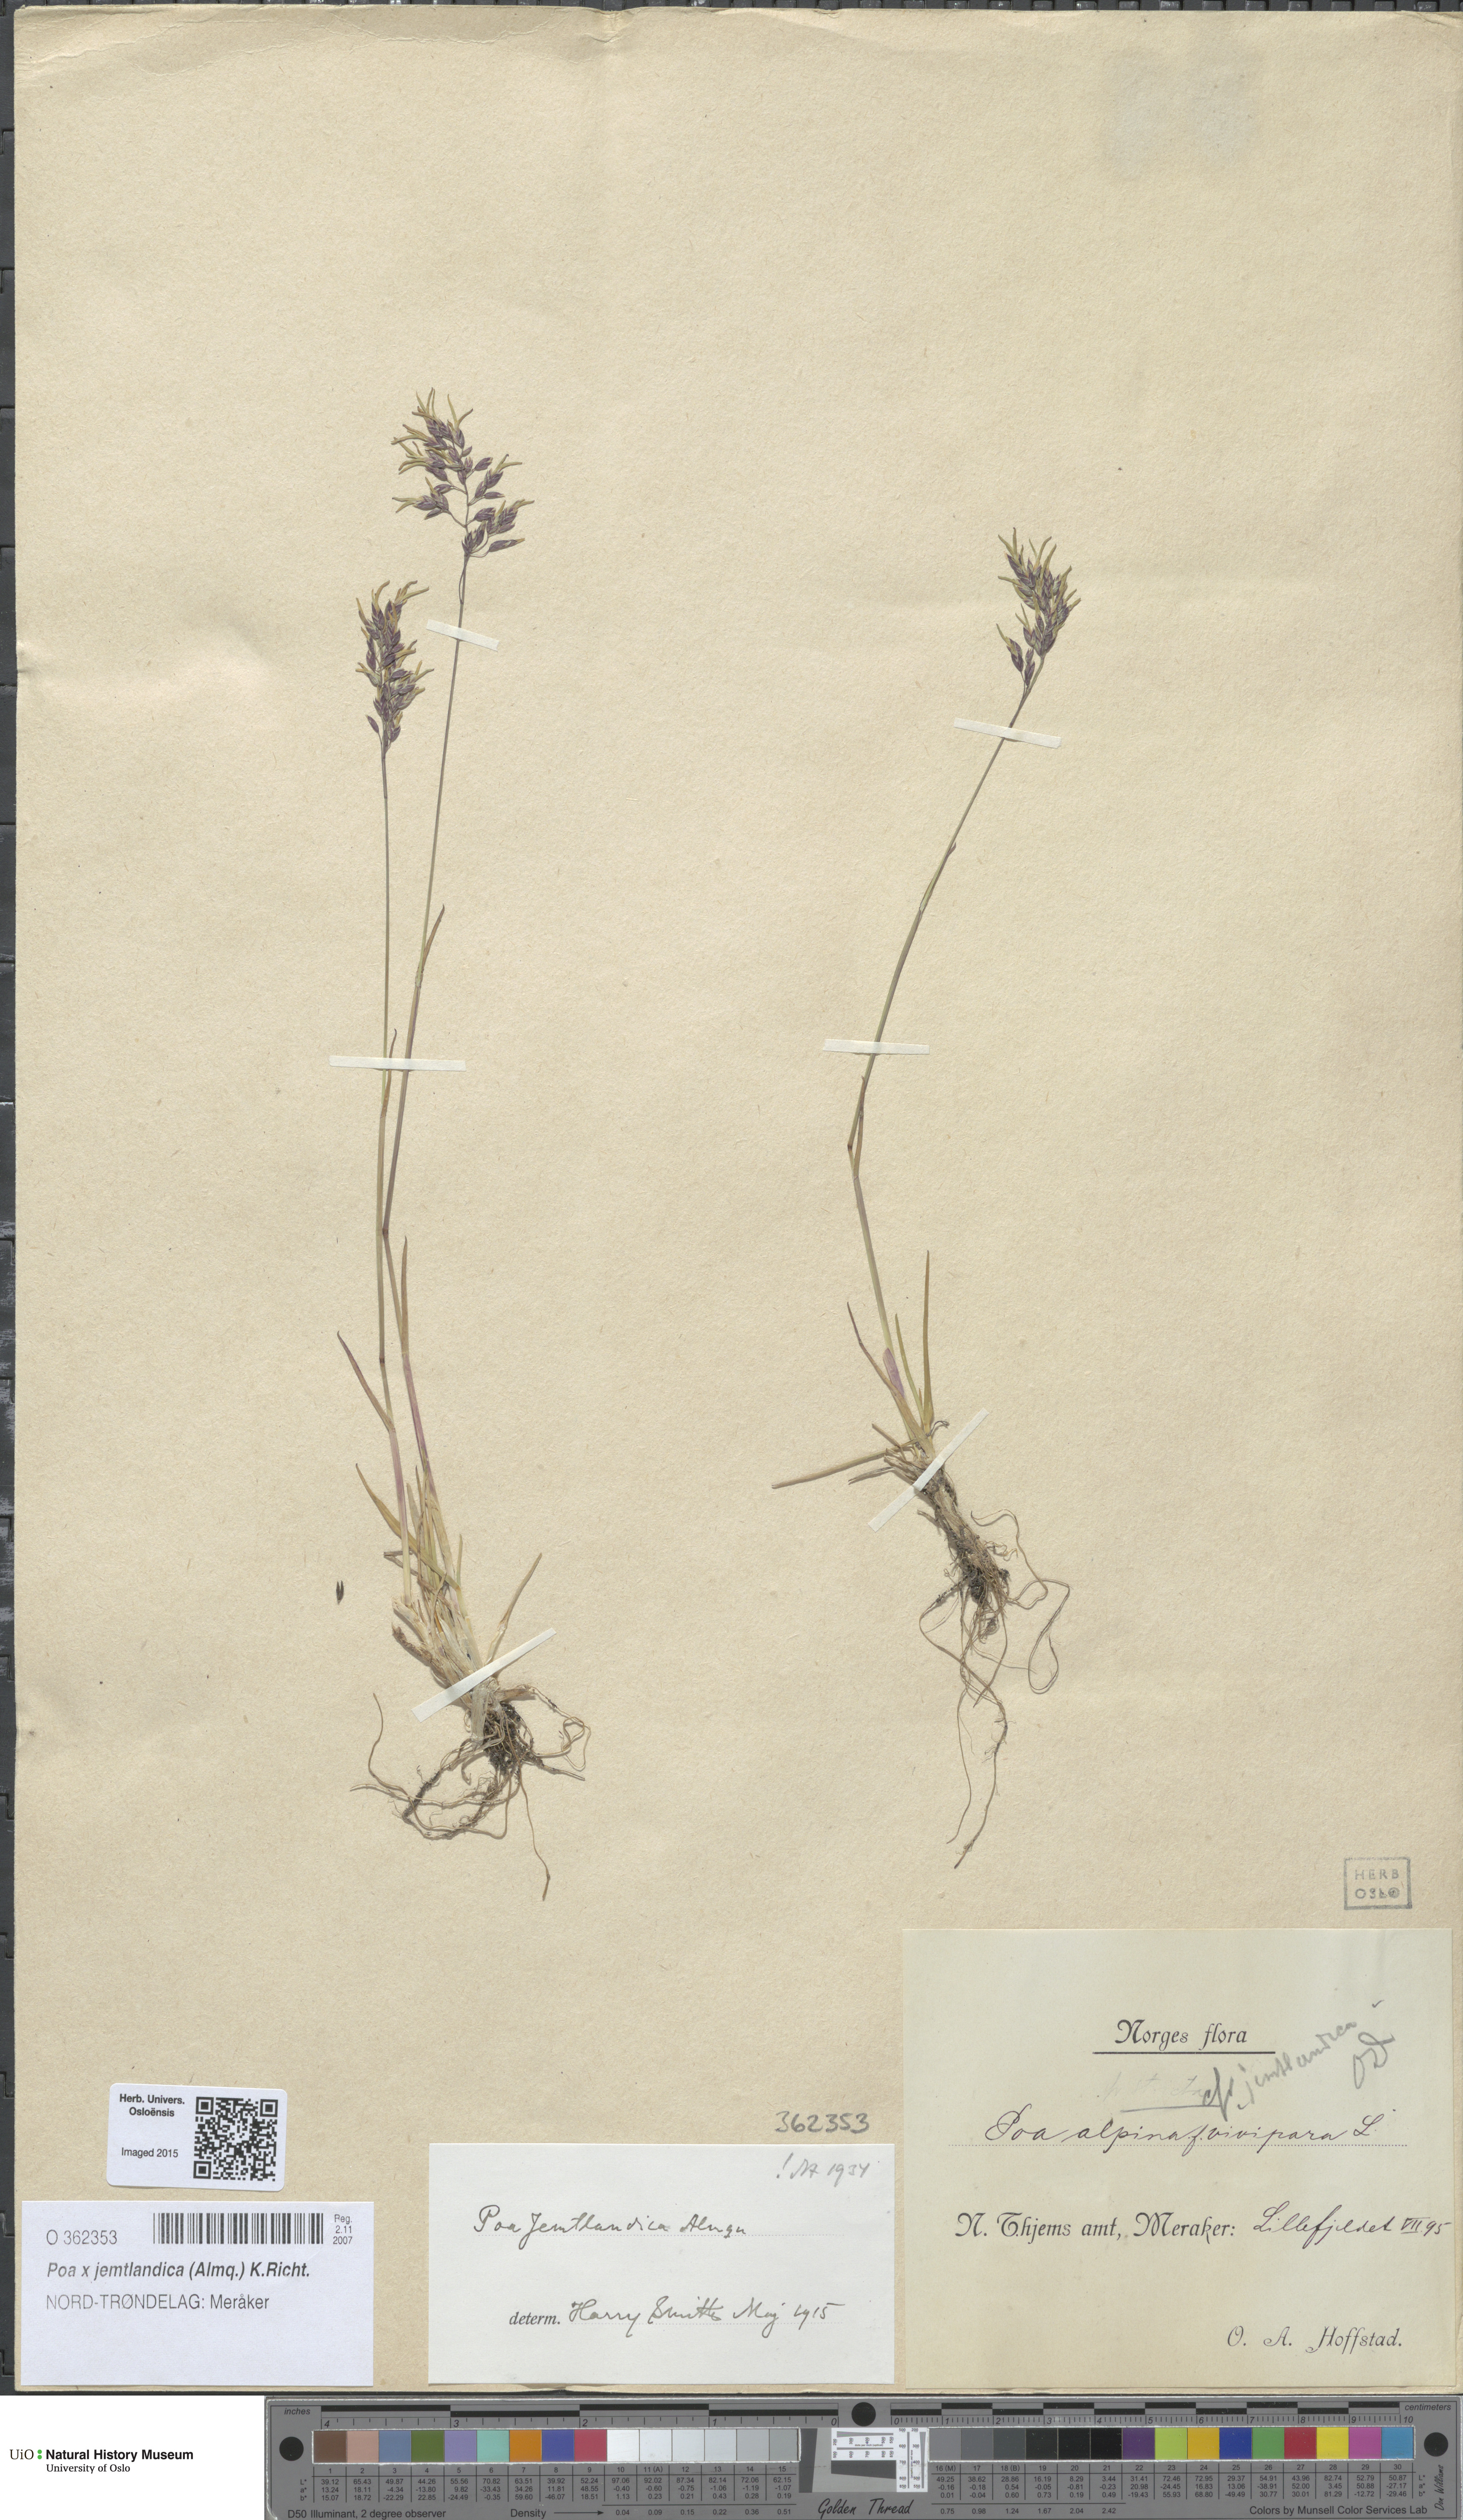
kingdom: Plantae
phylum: Tracheophyta
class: Liliopsida
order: Poales
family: Poaceae
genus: Poa
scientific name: Poa jemtlandica
